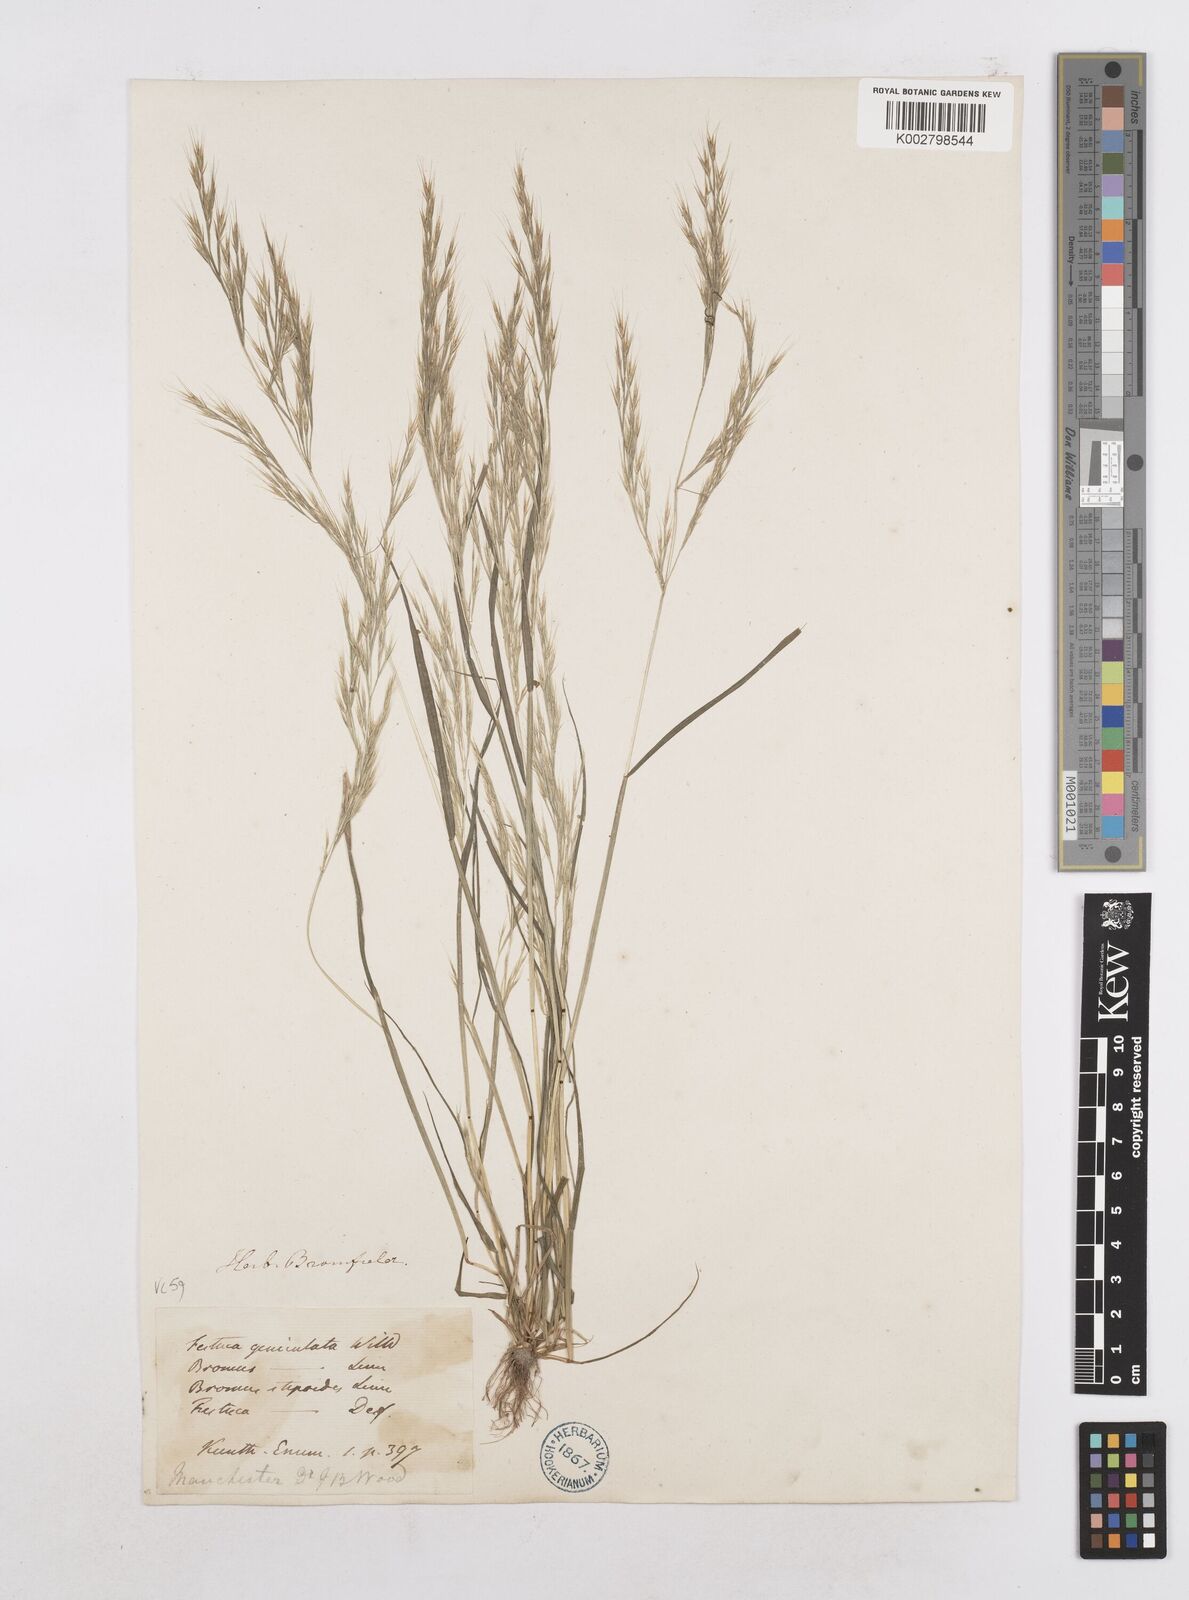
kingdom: Plantae
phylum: Tracheophyta
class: Liliopsida
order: Poales
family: Poaceae
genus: Festuca
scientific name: Festuca geniculata
